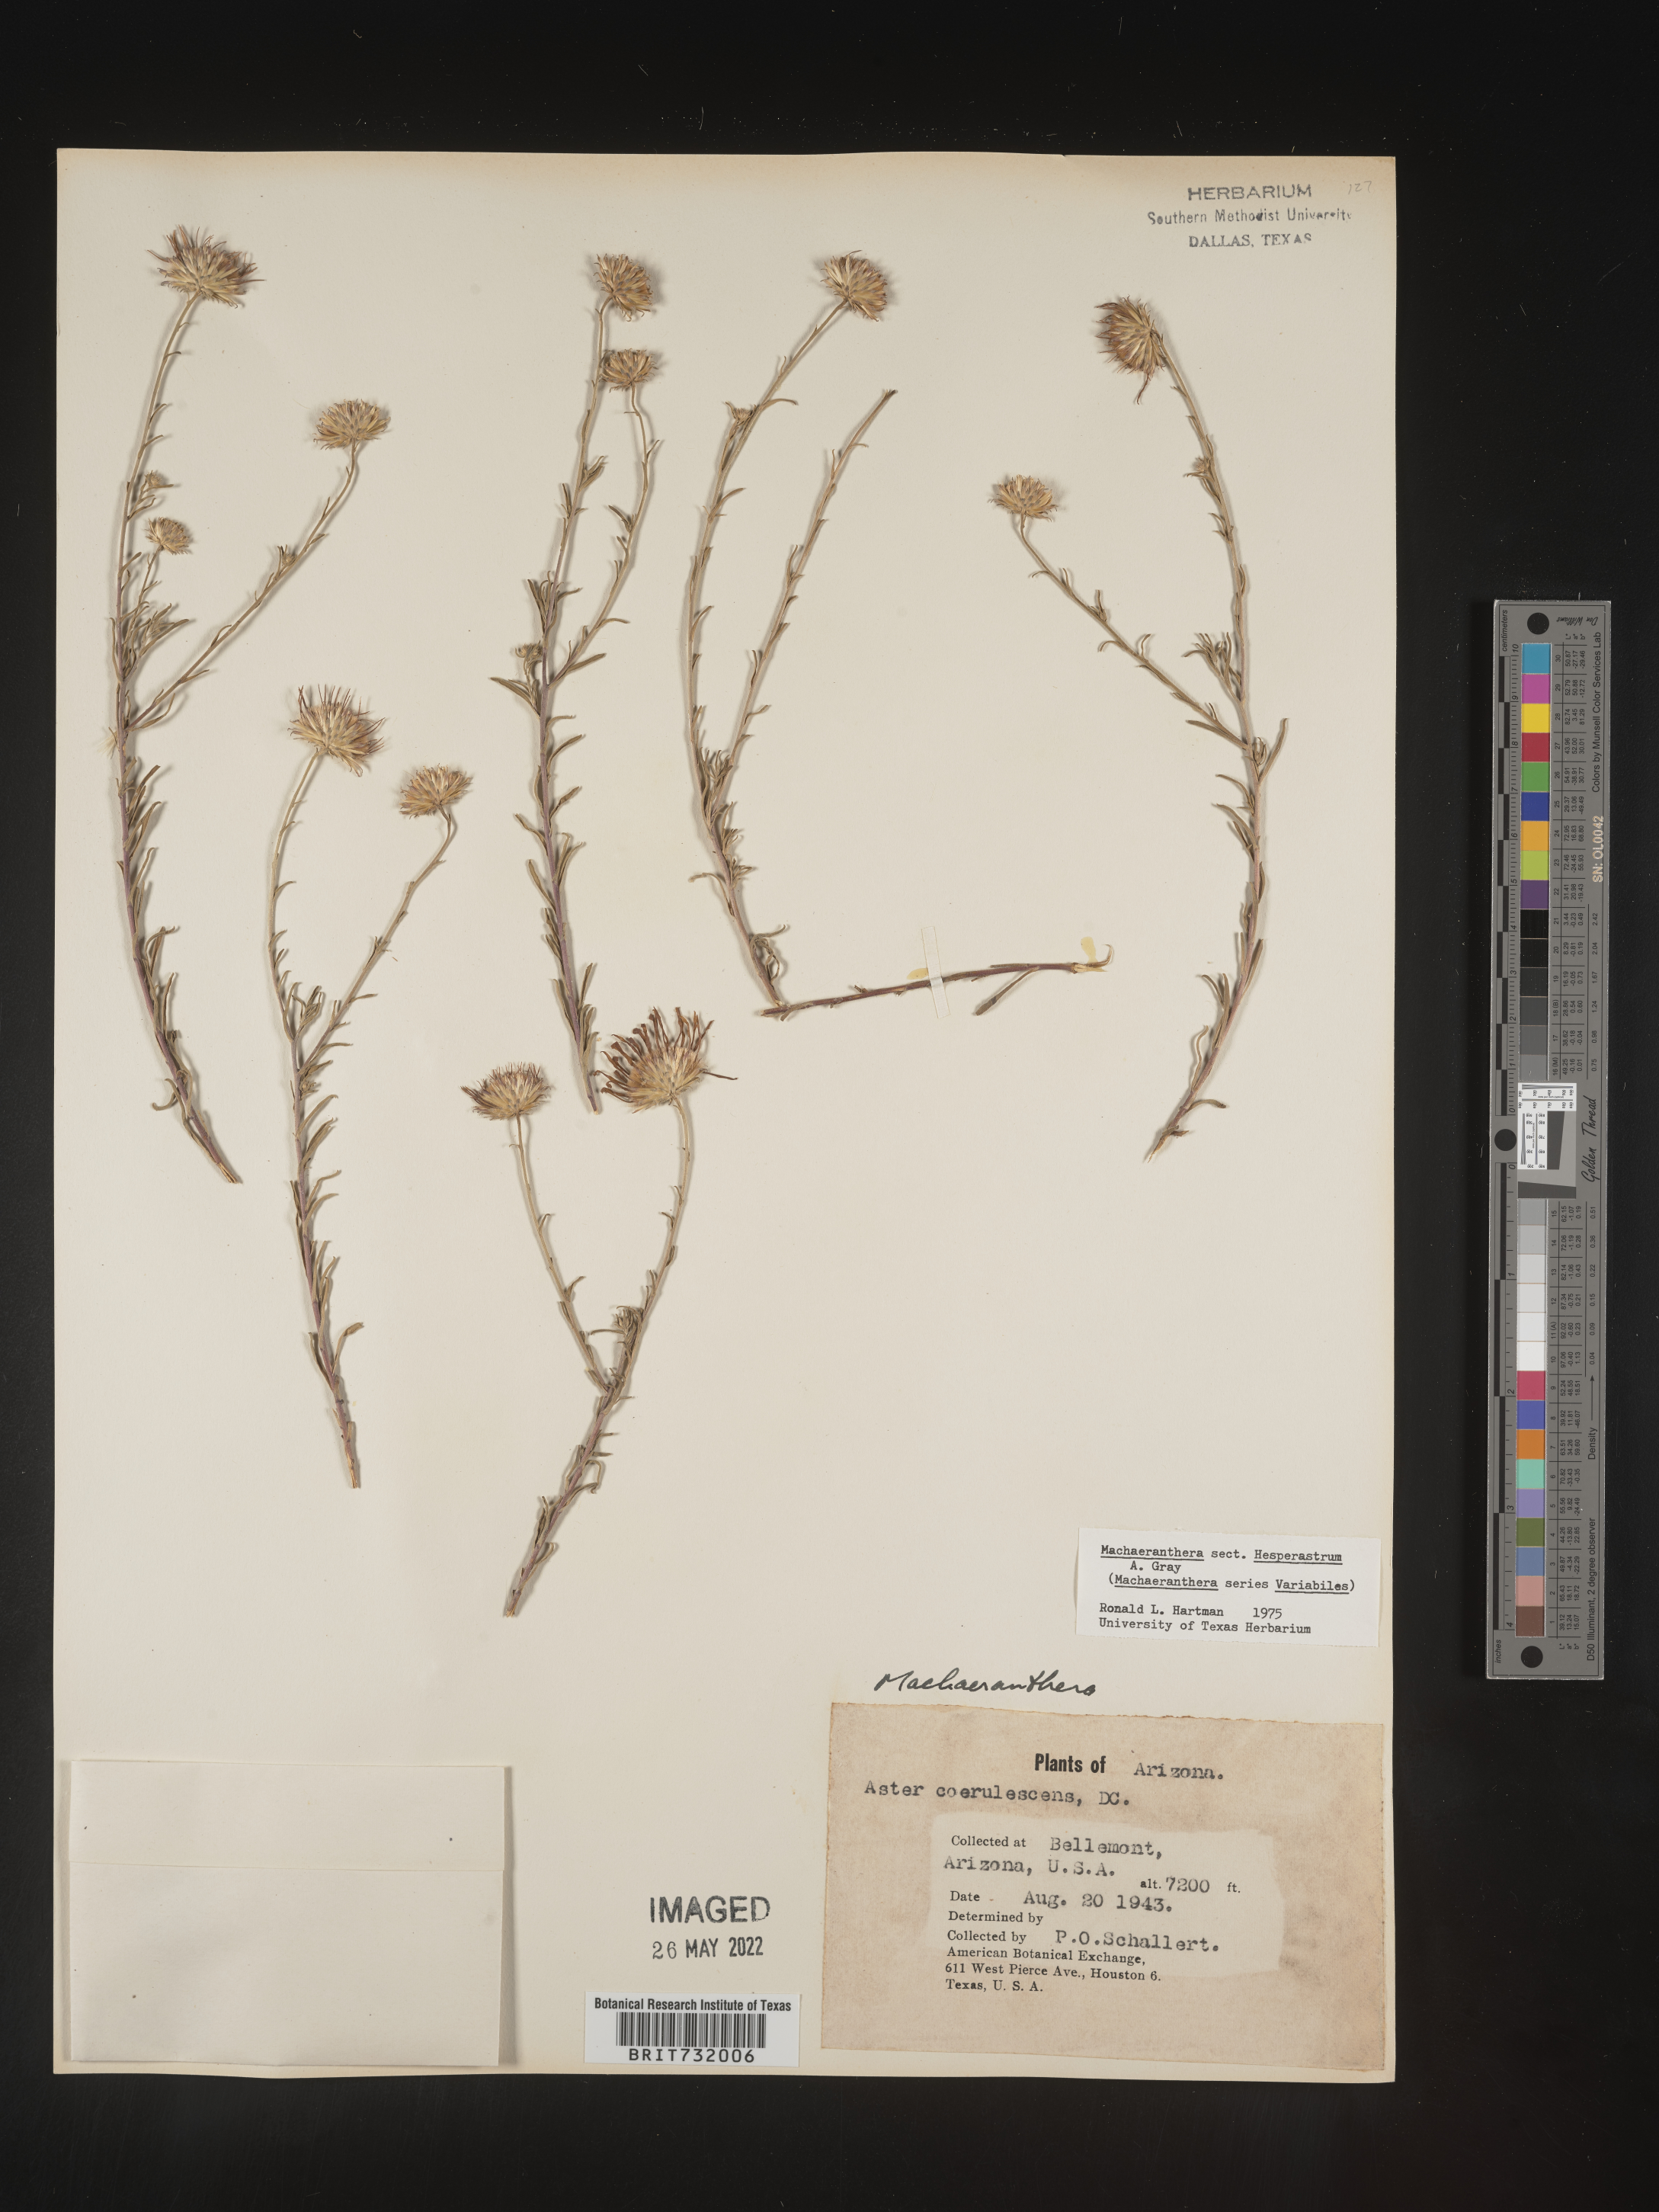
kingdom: Plantae
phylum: Tracheophyta
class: Magnoliopsida
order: Asterales
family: Asteraceae
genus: Machaeranthera
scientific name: Machaeranthera
